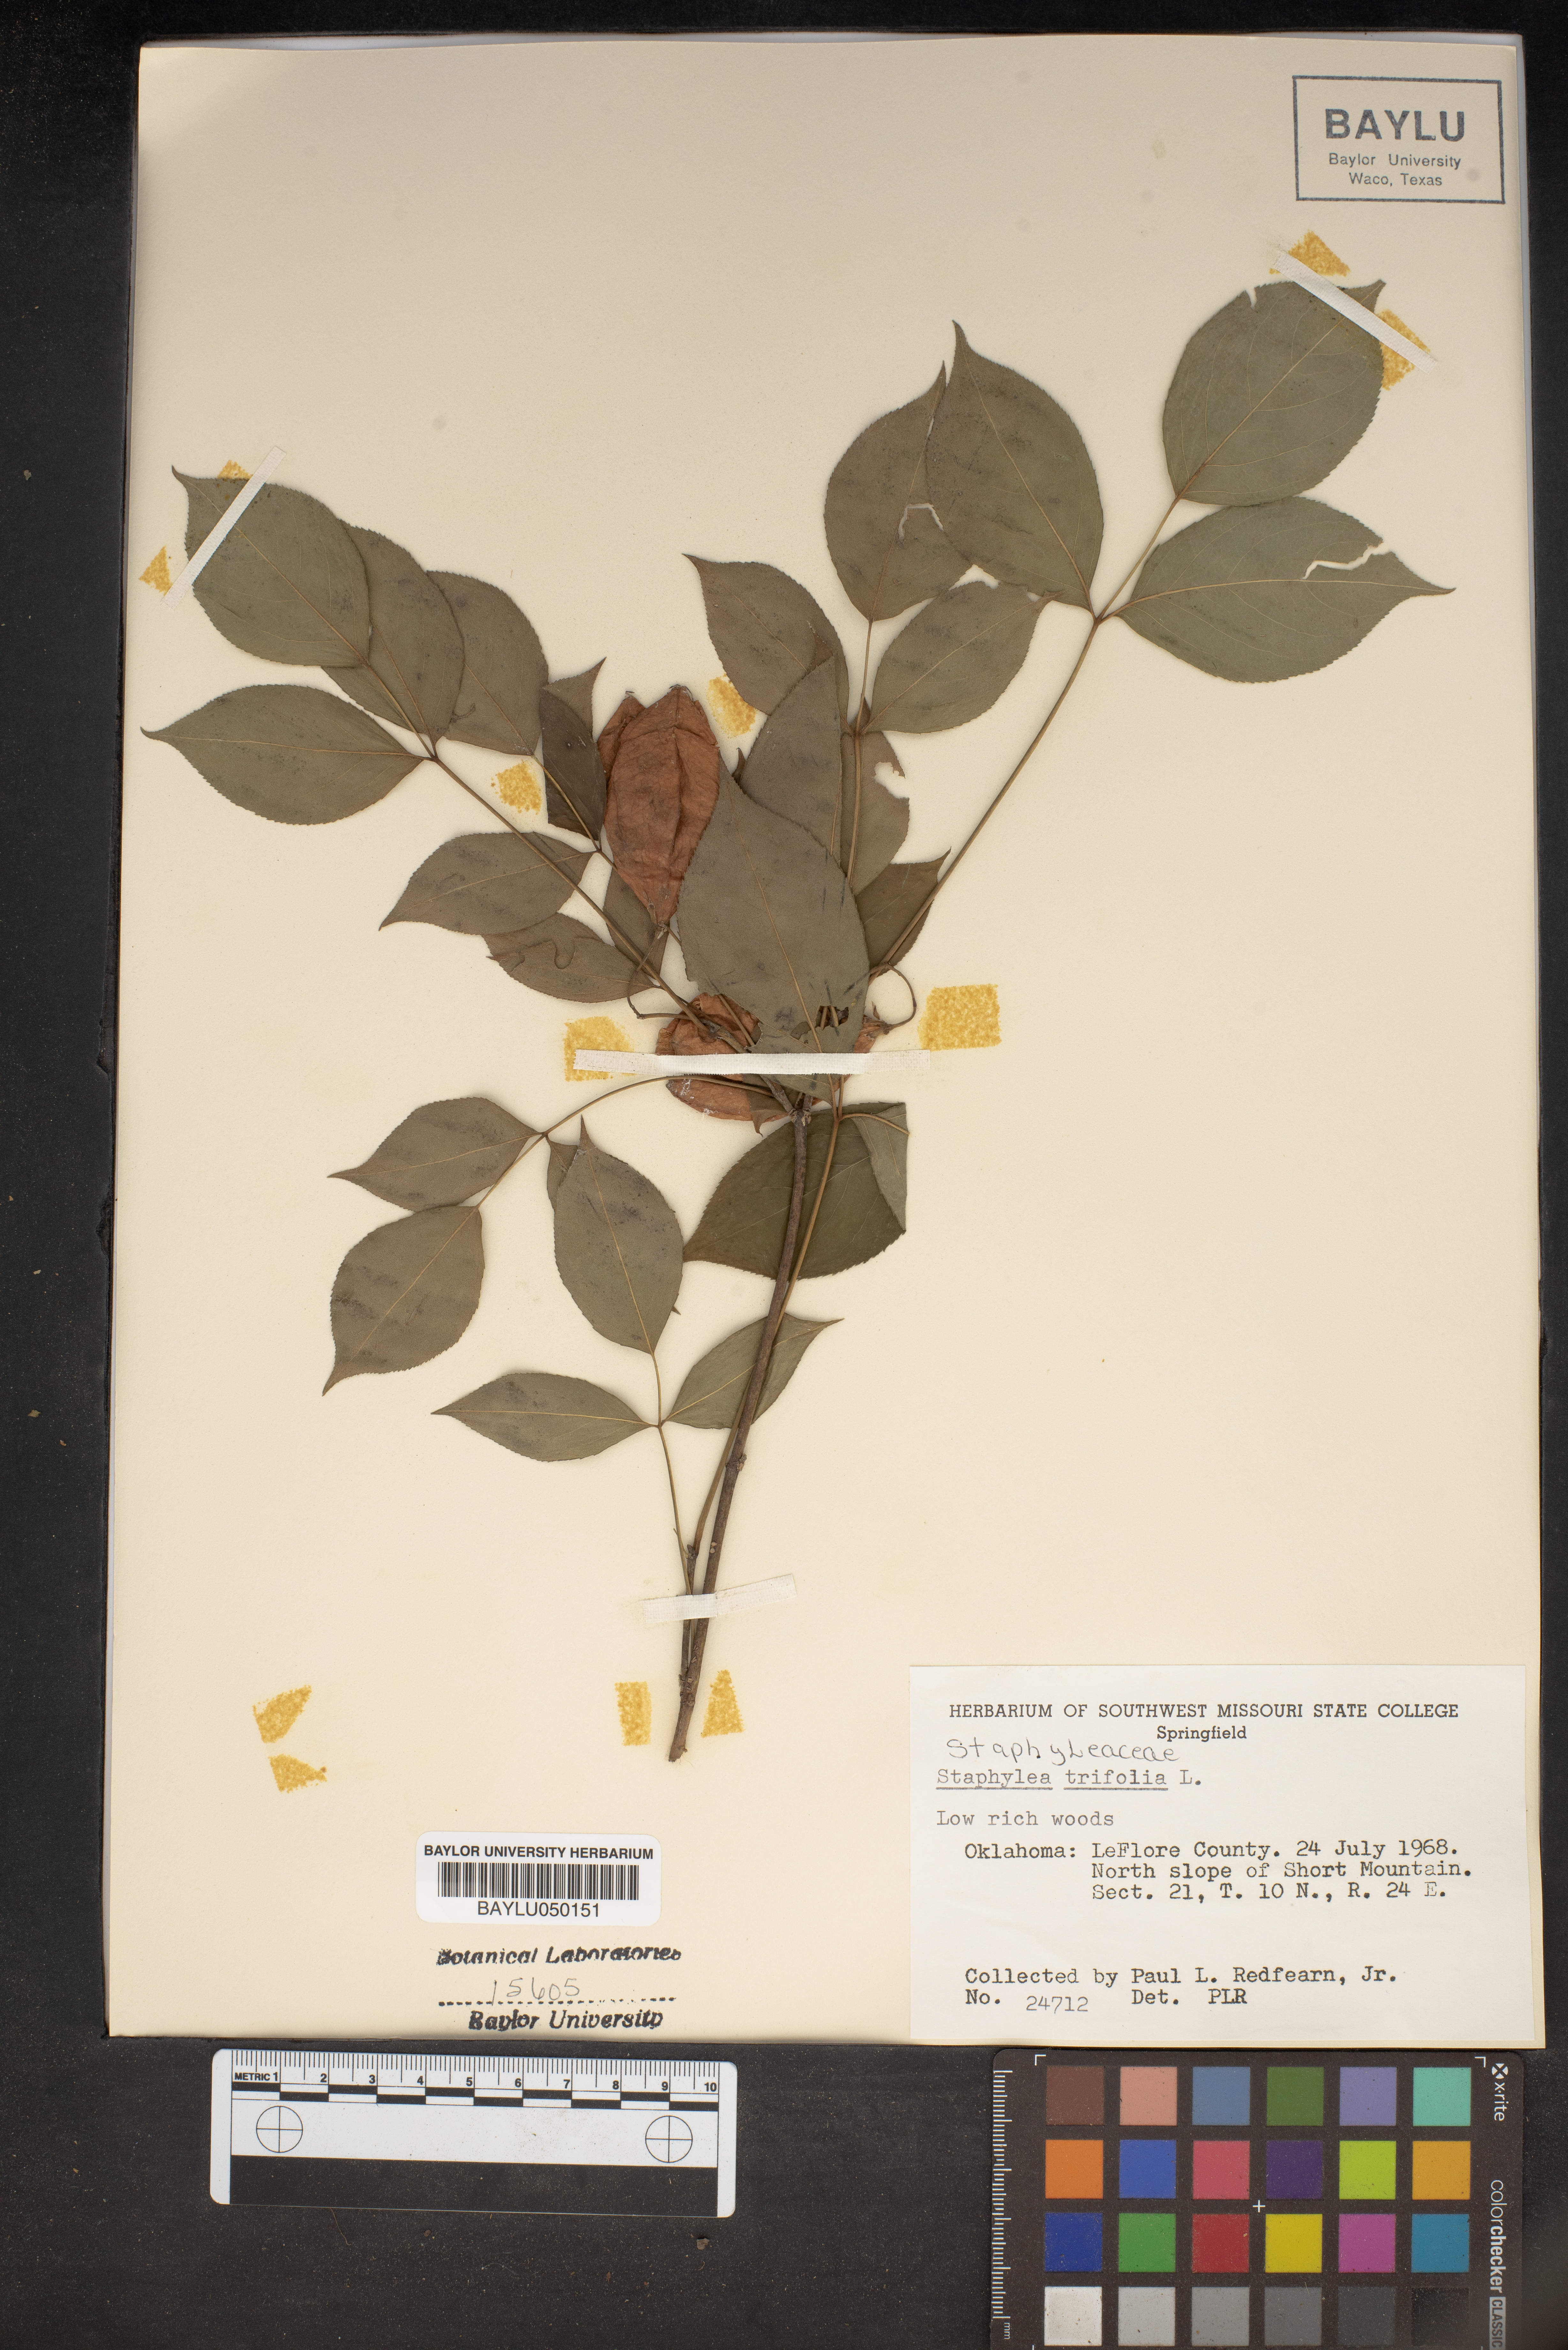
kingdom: Plantae
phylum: Tracheophyta
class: Magnoliopsida
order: Crossosomatales
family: Staphyleaceae
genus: Staphylea
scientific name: Staphylea trifolia
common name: American bladdernut
